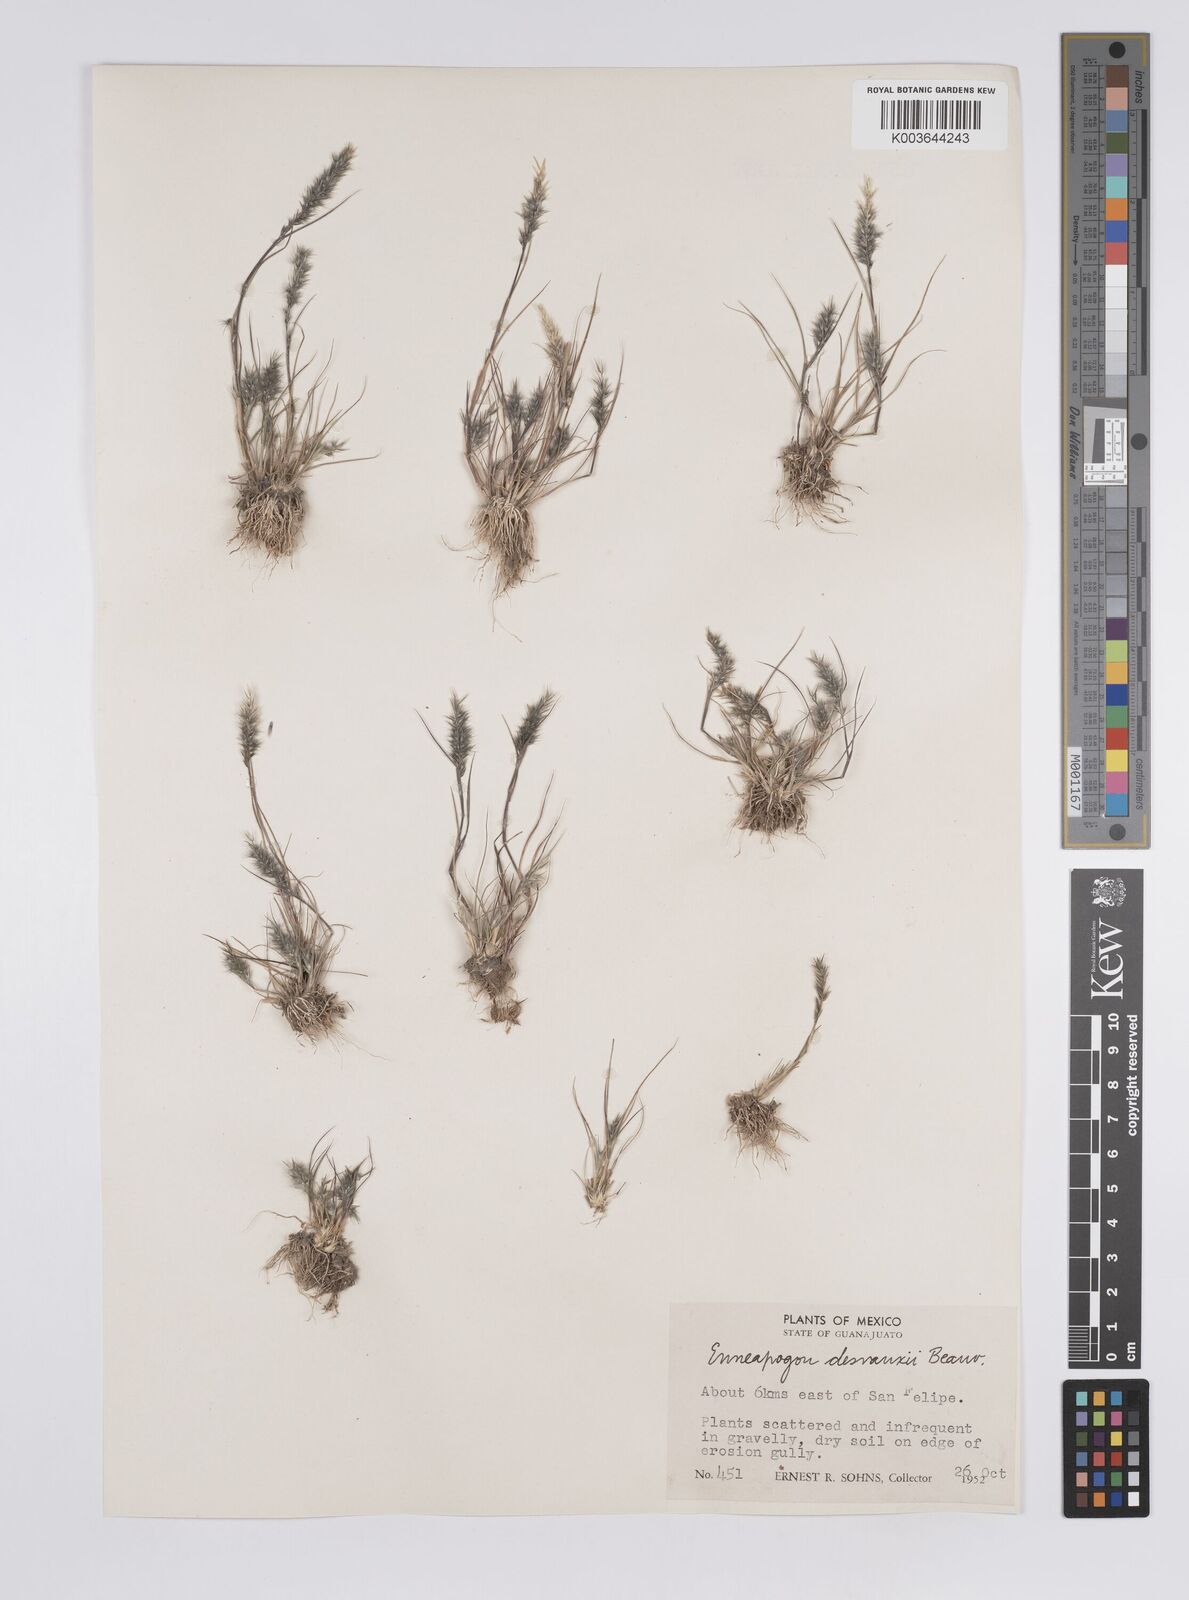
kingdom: Plantae
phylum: Tracheophyta
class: Liliopsida
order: Poales
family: Poaceae
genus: Enneapogon
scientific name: Enneapogon desvauxii
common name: Feather pappus grass
